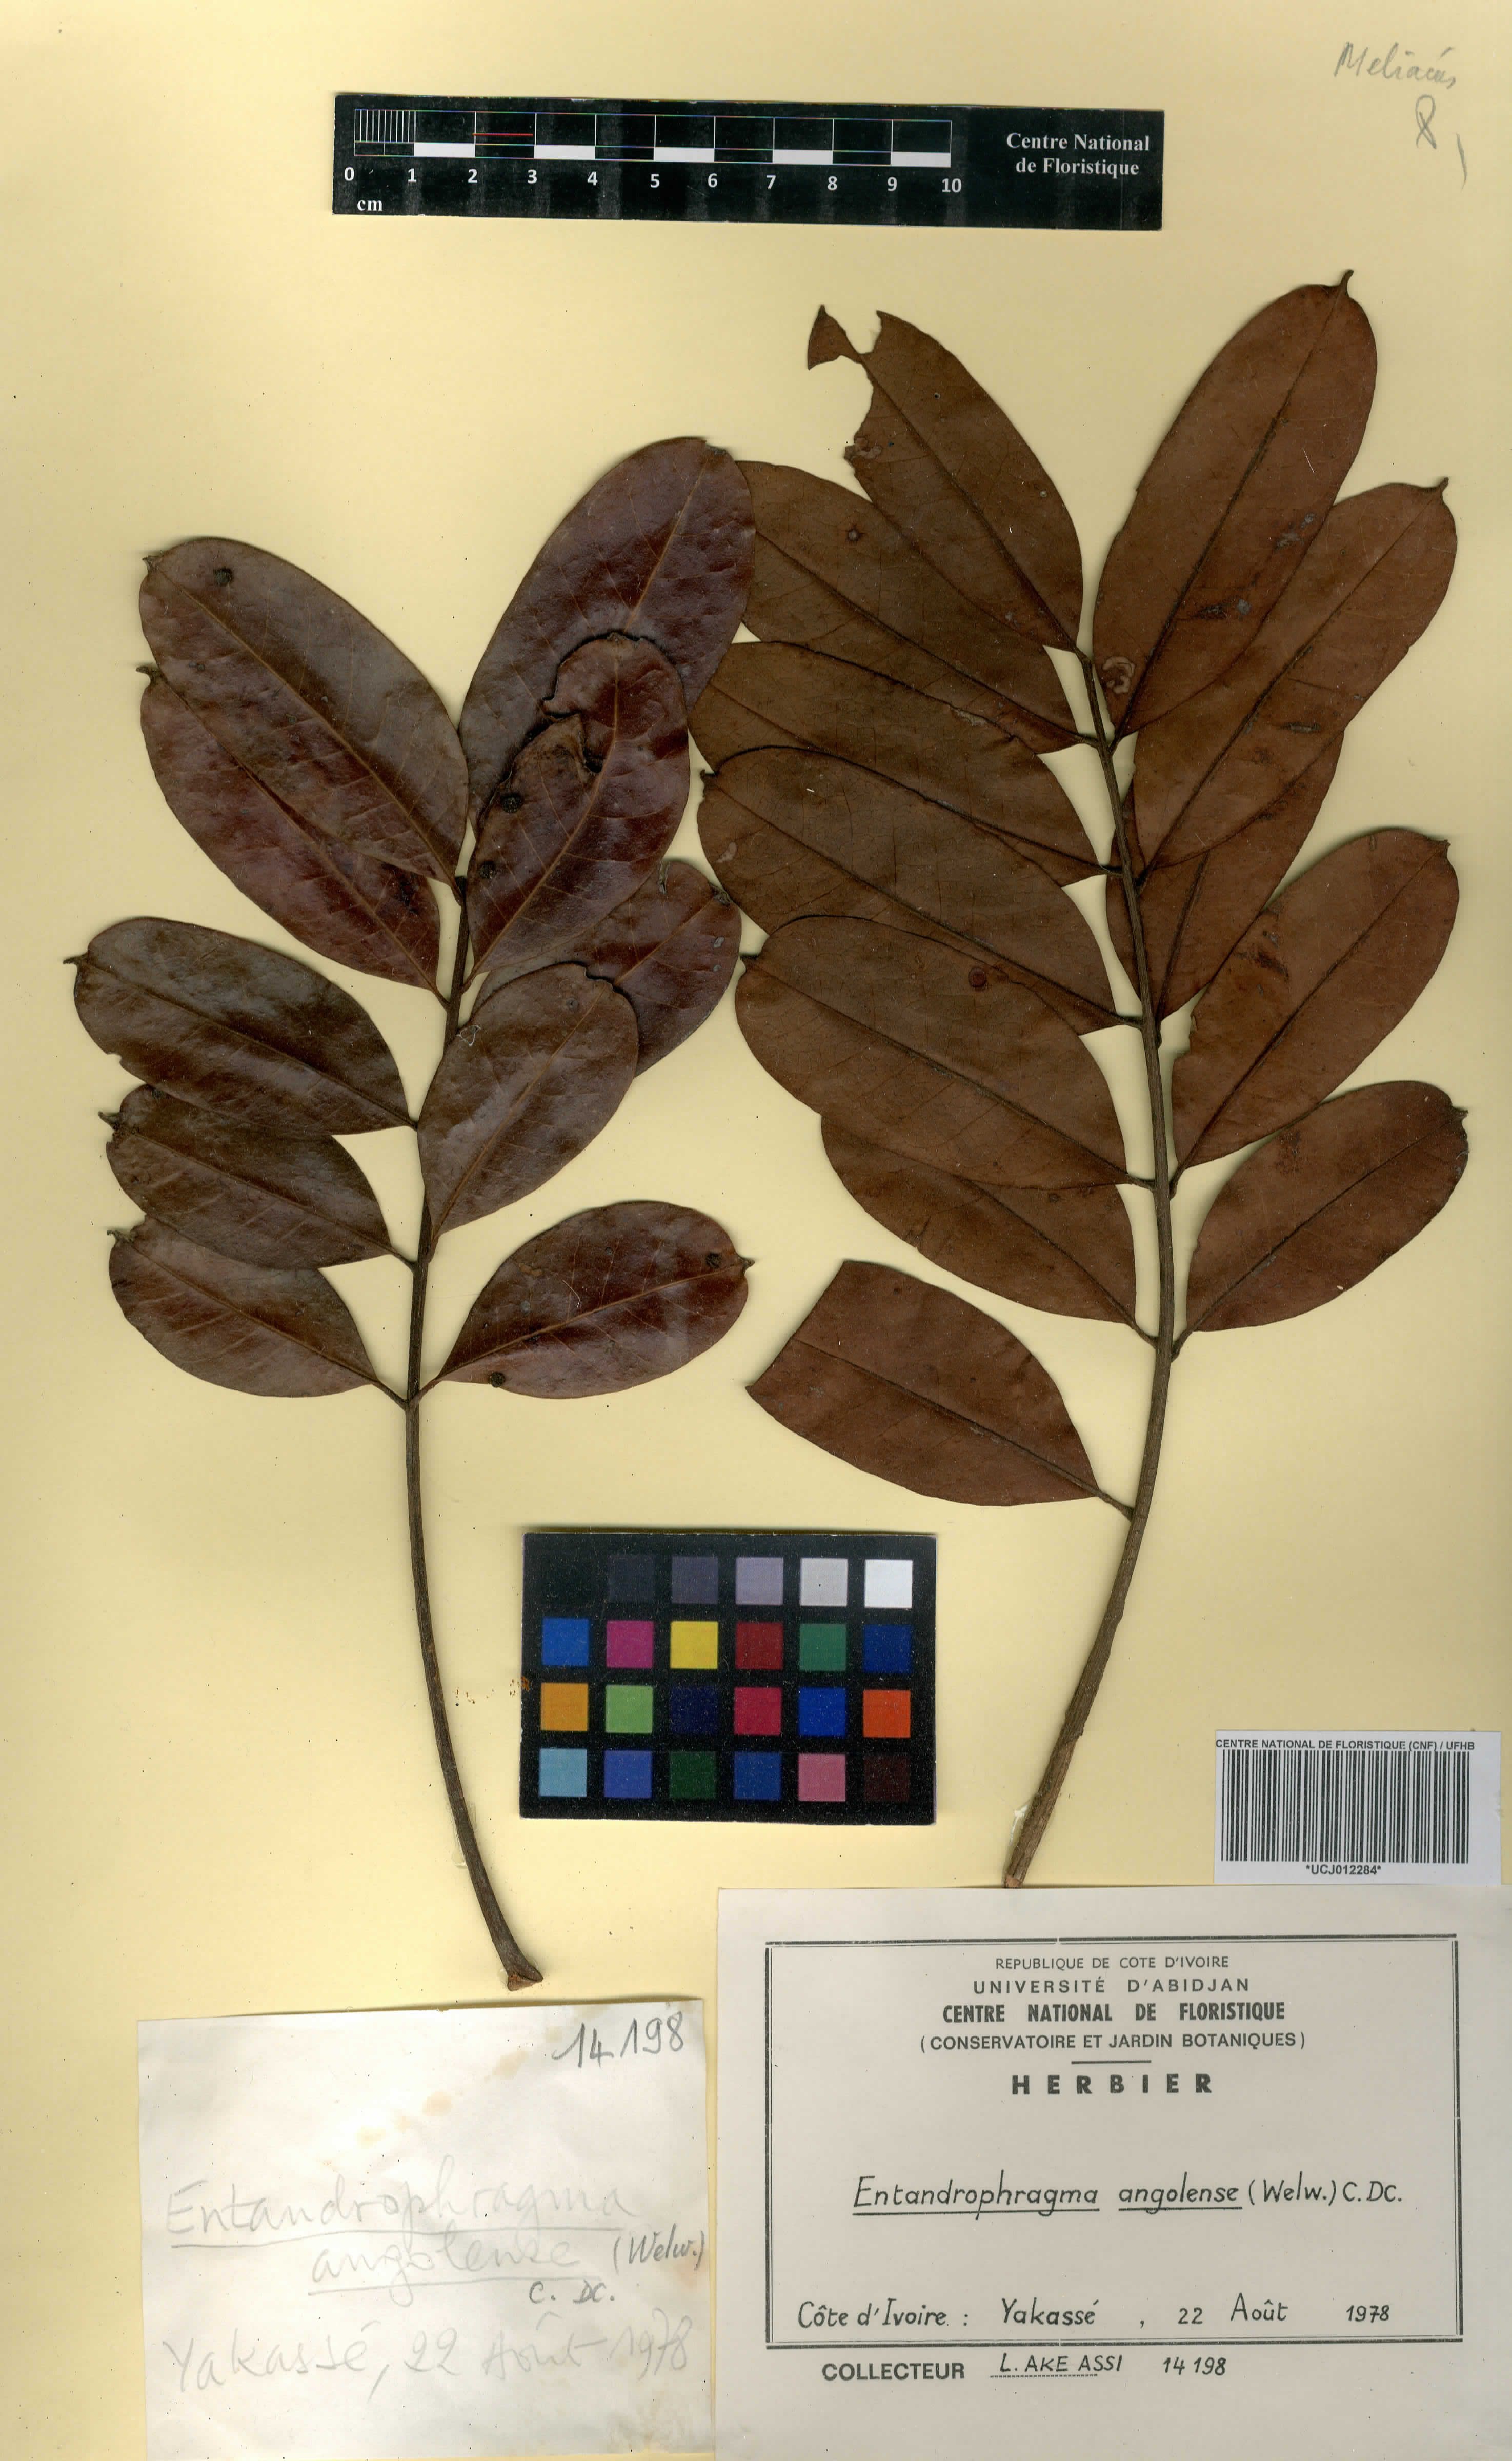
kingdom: Plantae
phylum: Tracheophyta
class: Magnoliopsida
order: Sapindales
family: Meliaceae
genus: Entandrophragma
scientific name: Entandrophragma angolense
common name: African mahogany
